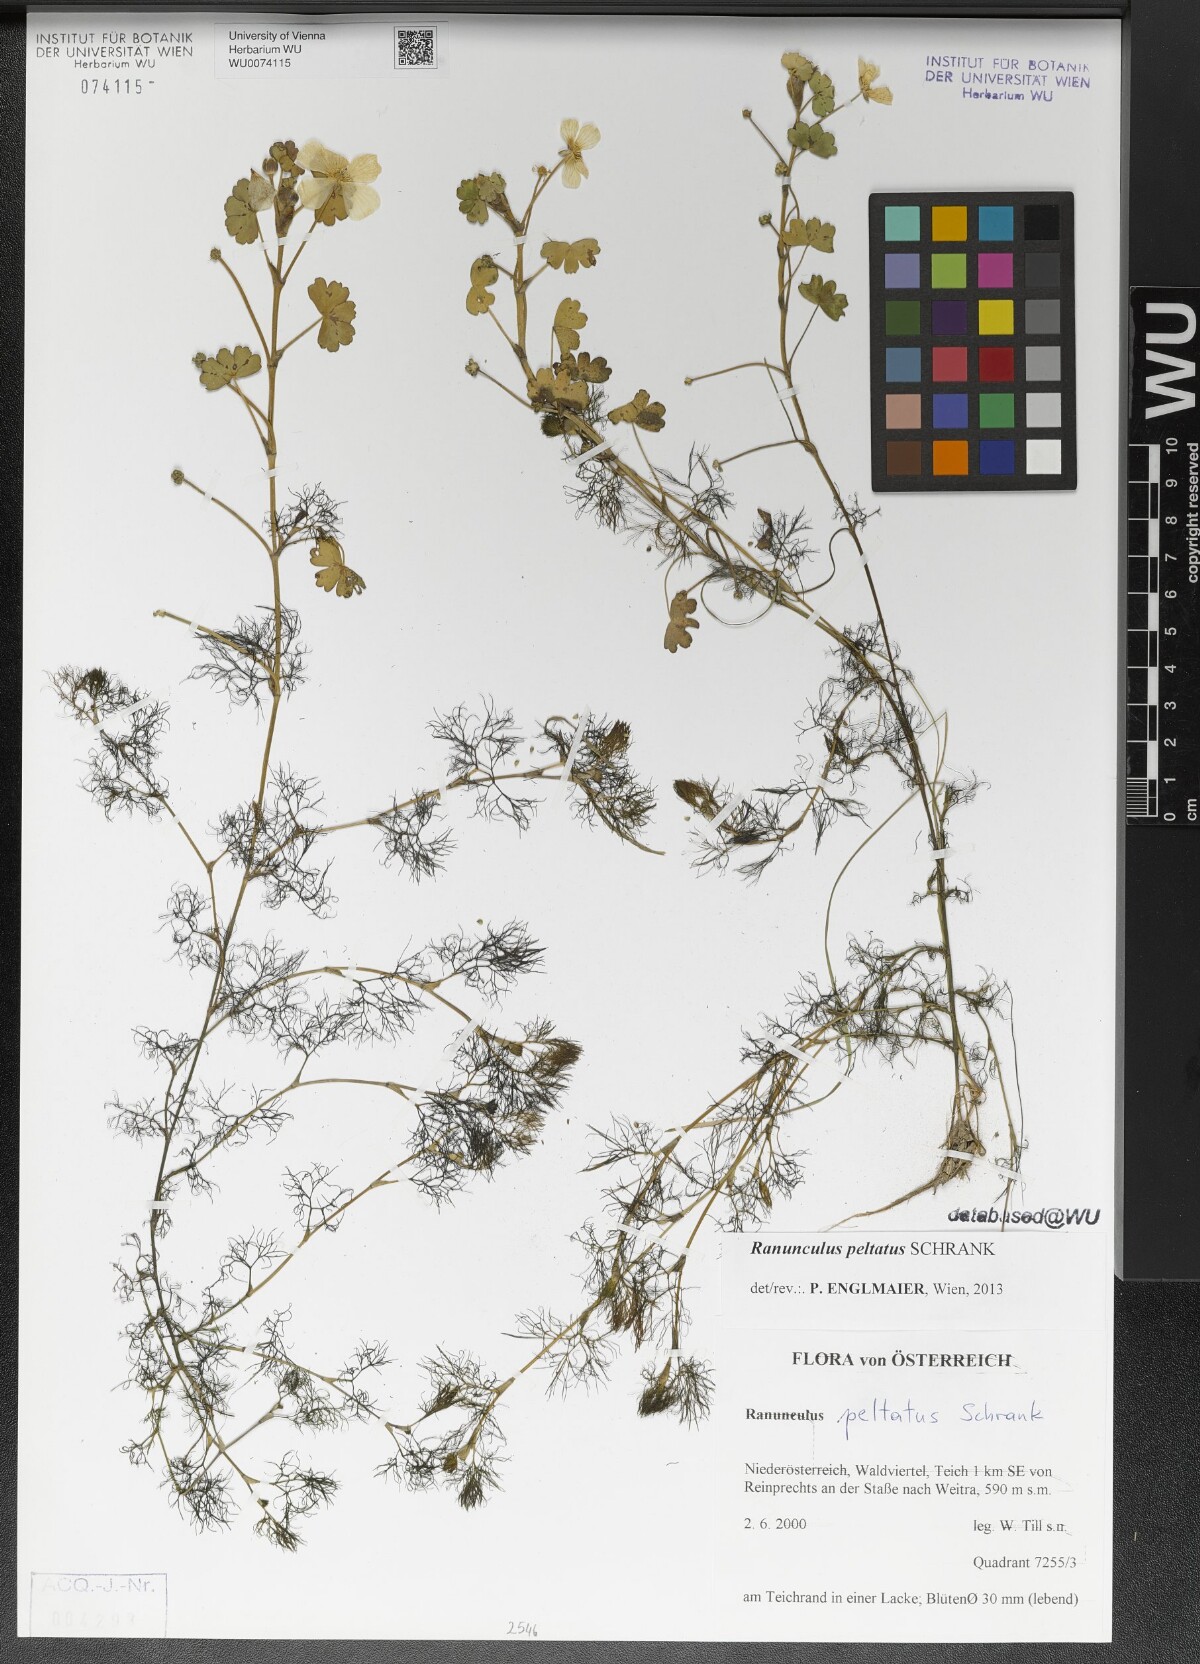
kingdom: Plantae
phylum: Tracheophyta
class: Magnoliopsida
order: Ranunculales
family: Ranunculaceae
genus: Ranunculus
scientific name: Ranunculus peltatus
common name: Pond water-crowfoot
